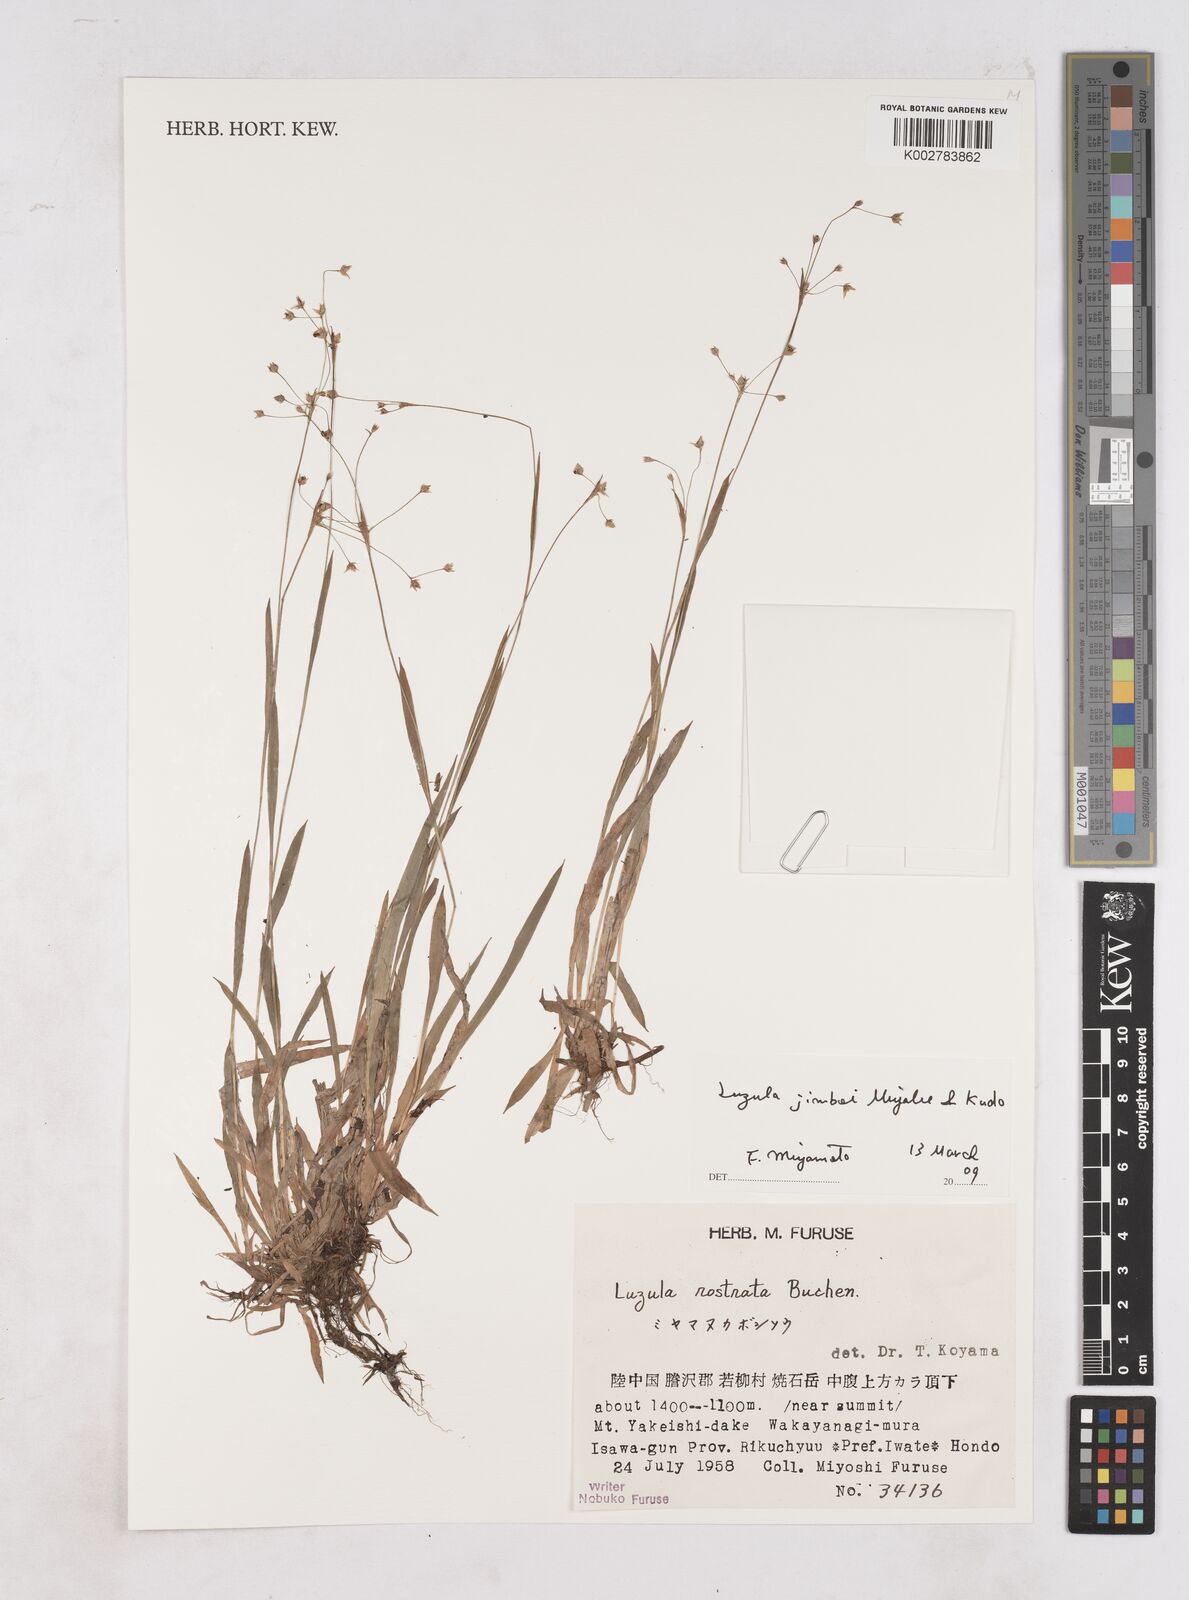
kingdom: Plantae
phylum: Tracheophyta
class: Liliopsida
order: Poales
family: Juncaceae
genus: Luzula
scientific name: Luzula plumosa
